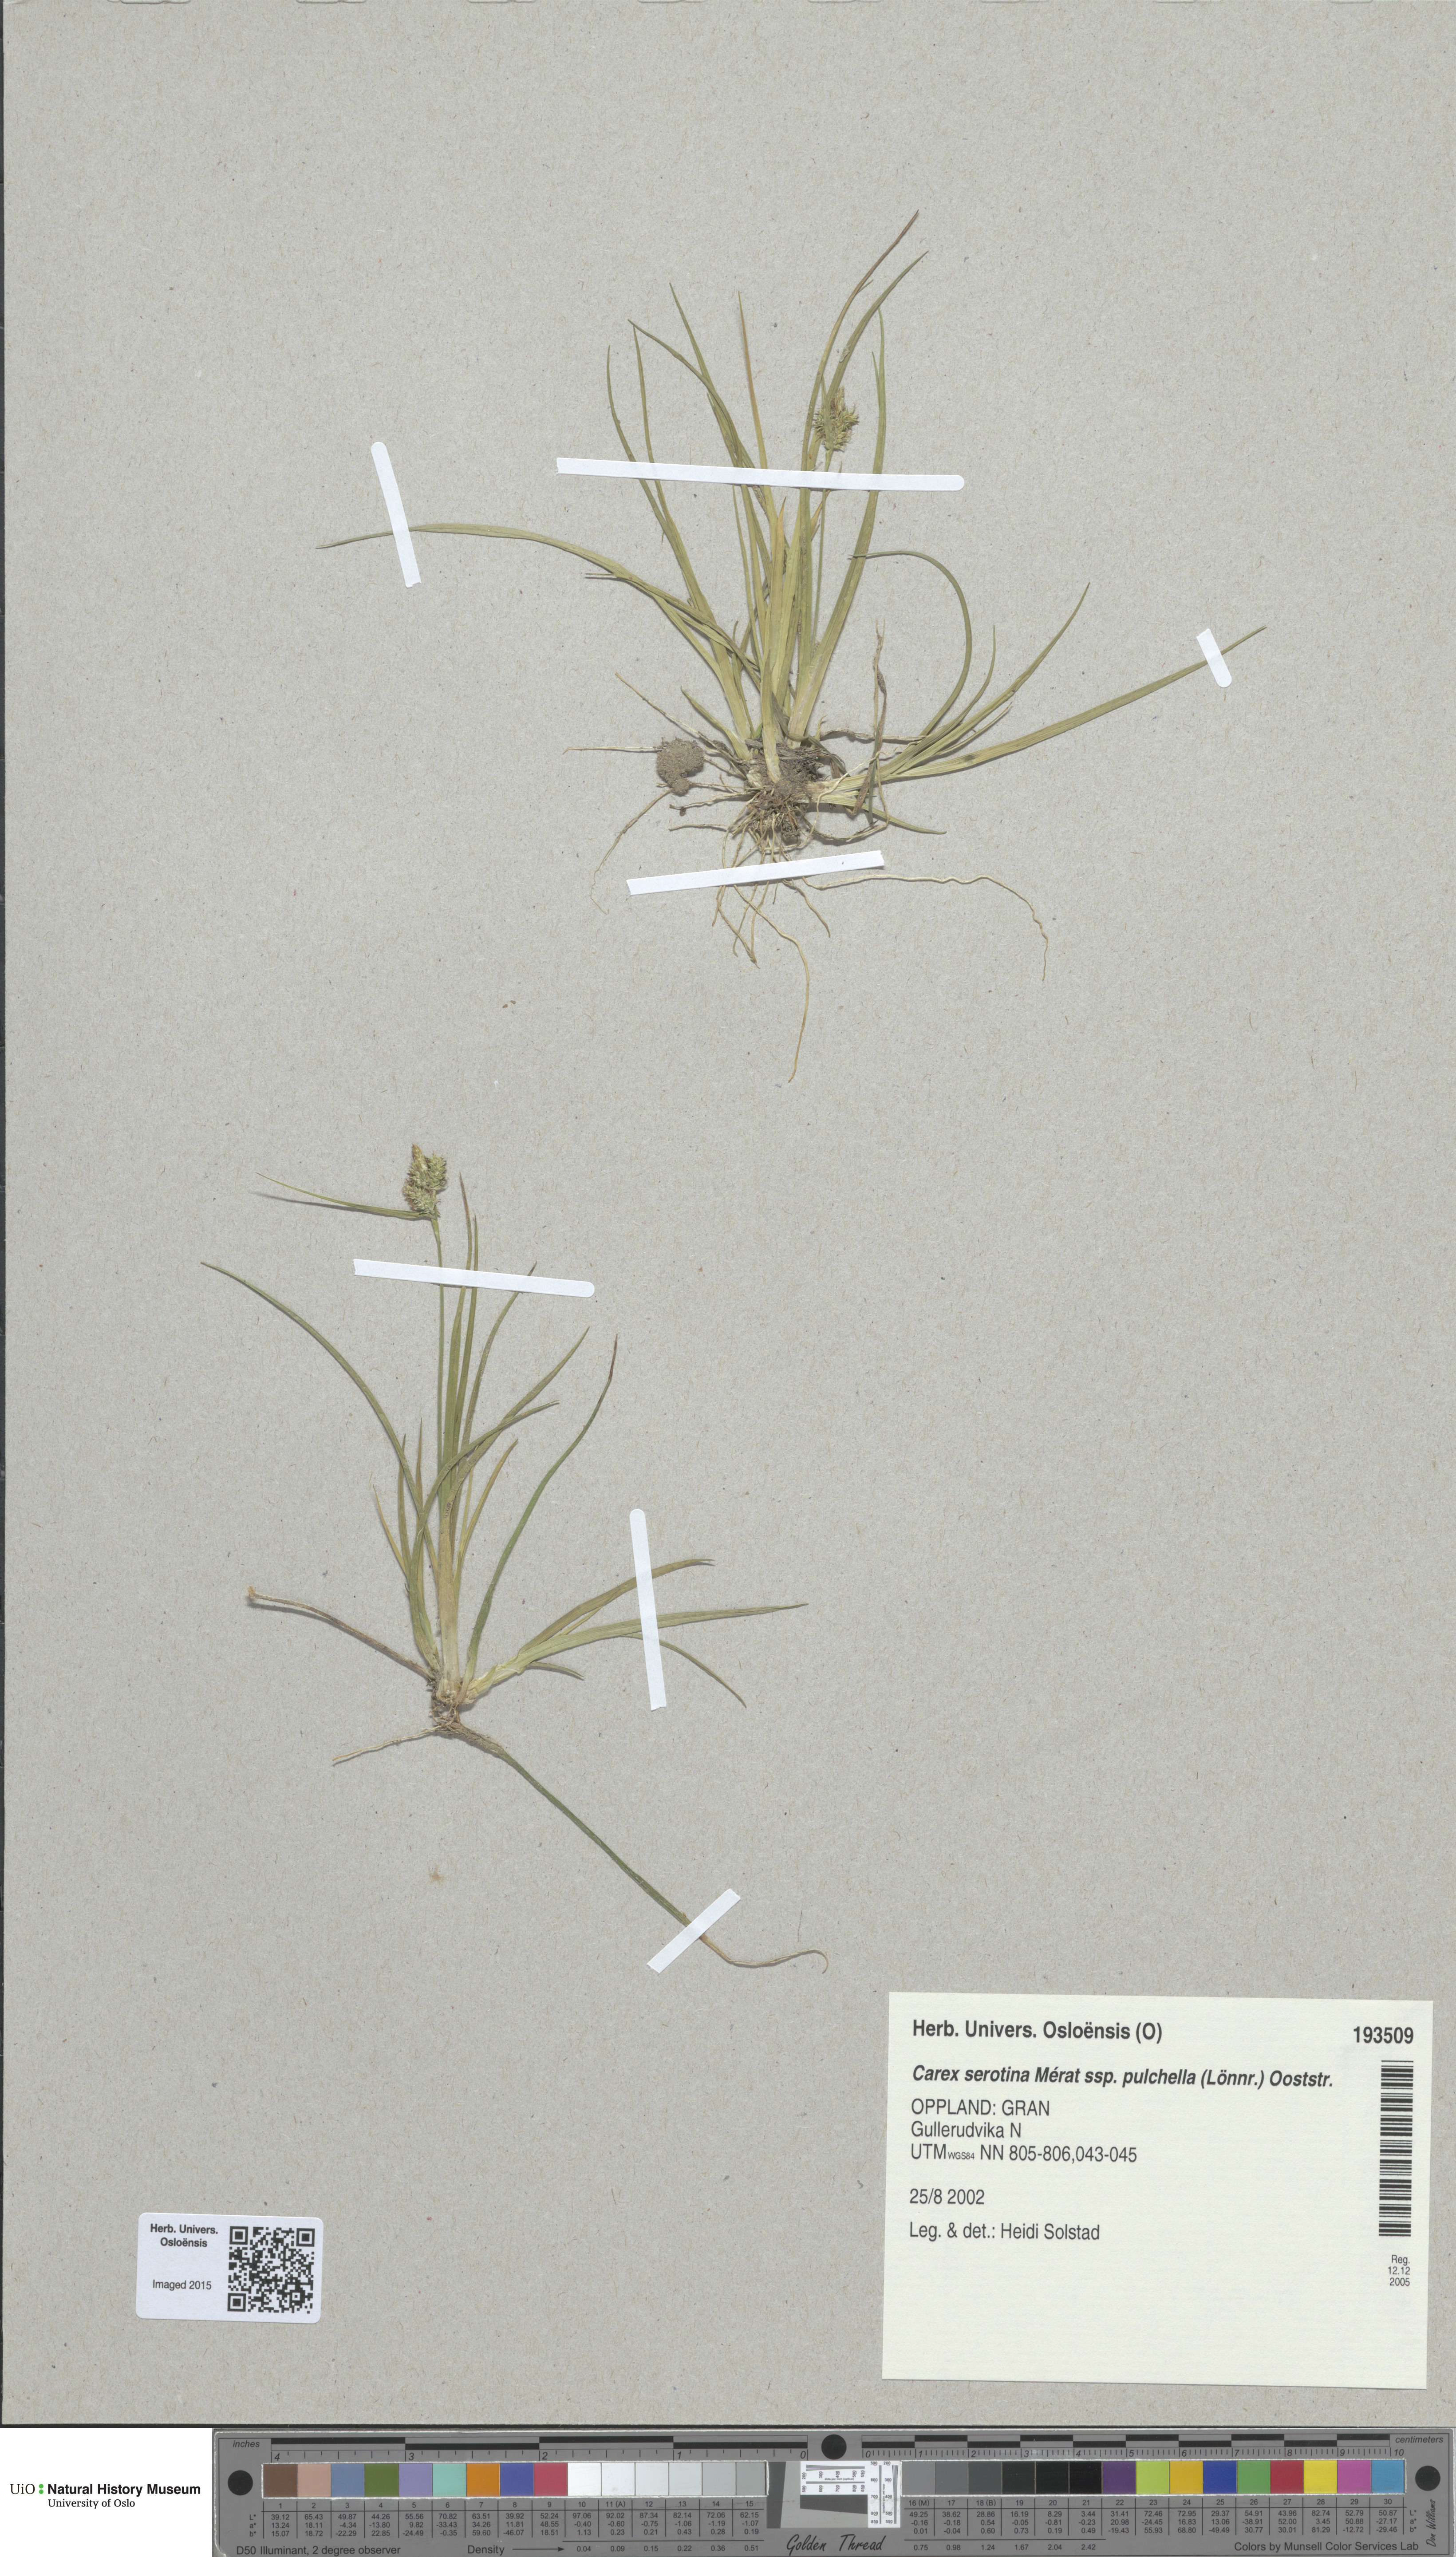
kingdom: Plantae
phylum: Tracheophyta
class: Liliopsida
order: Poales
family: Cyperaceae
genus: Carex
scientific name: Carex oederi
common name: Common & small-fruited yellow-sedge
